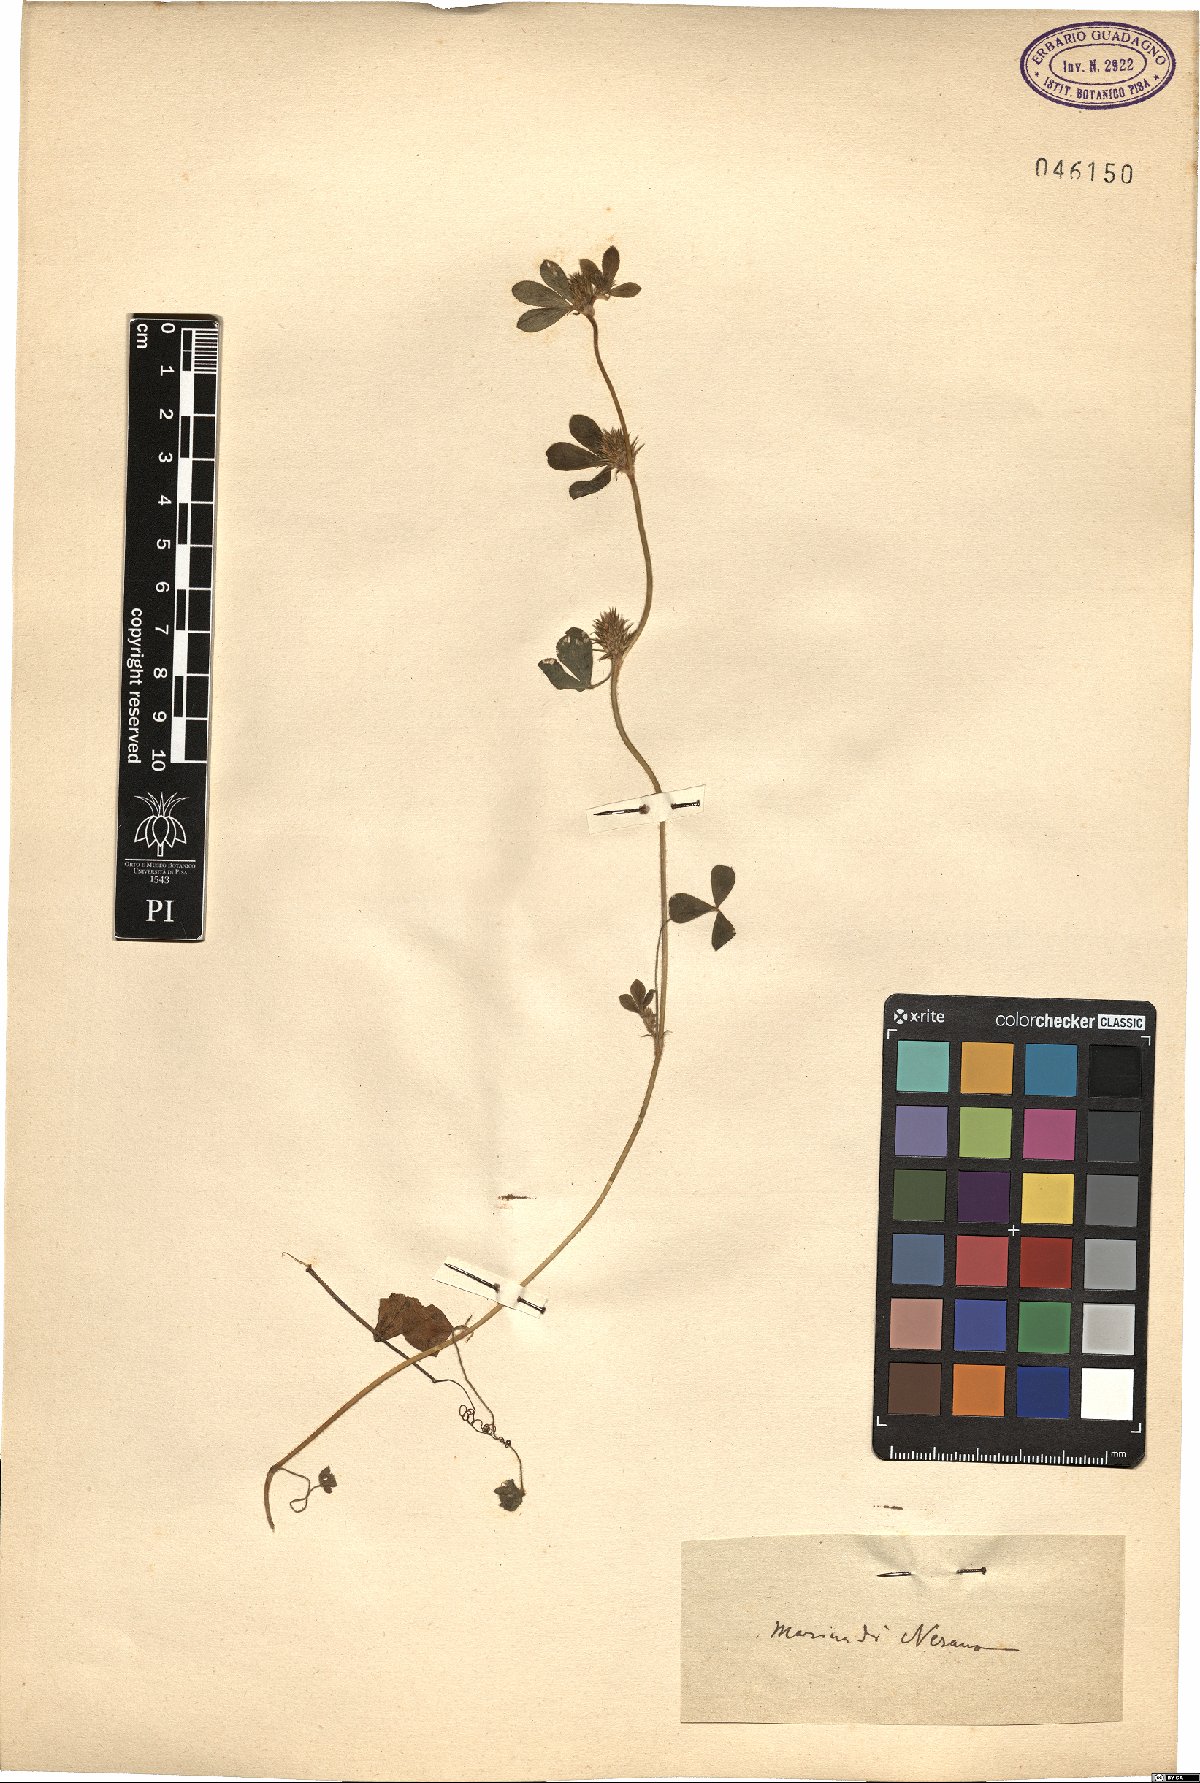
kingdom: Plantae
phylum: Tracheophyta
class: Magnoliopsida
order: Fabales
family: Fabaceae
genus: Trifolium
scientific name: Trifolium
